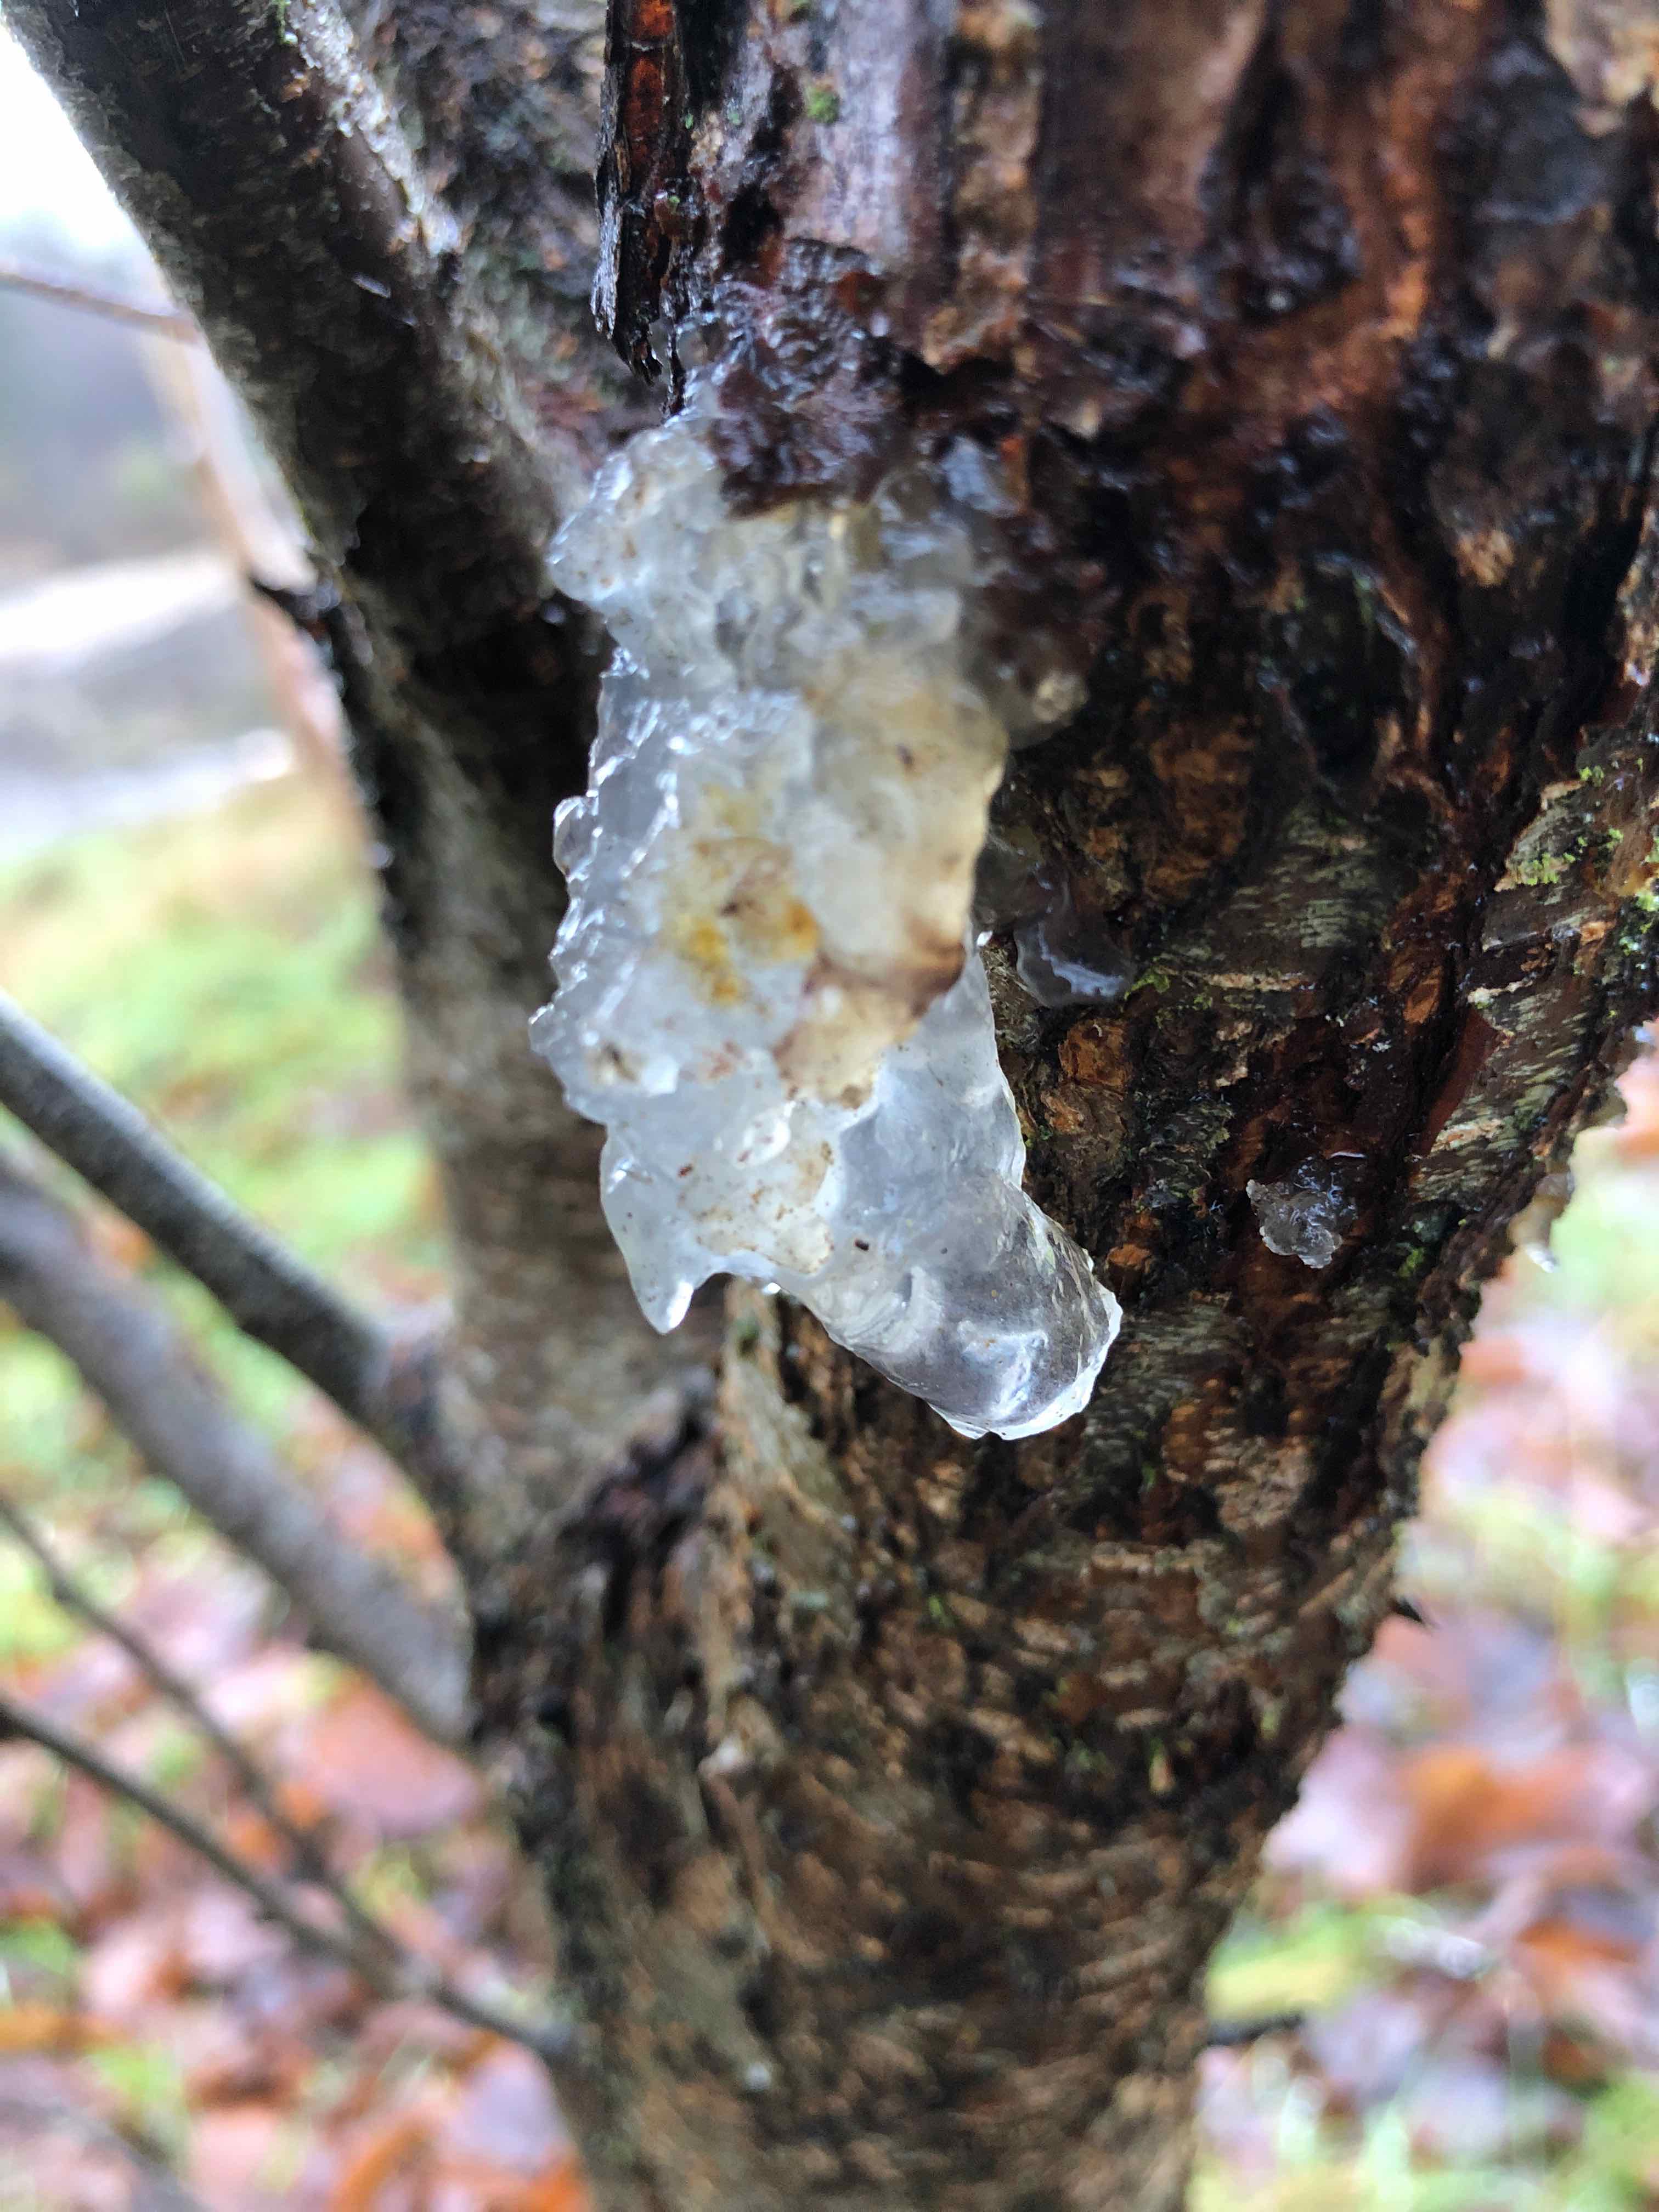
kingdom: Fungi
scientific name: Fungi
